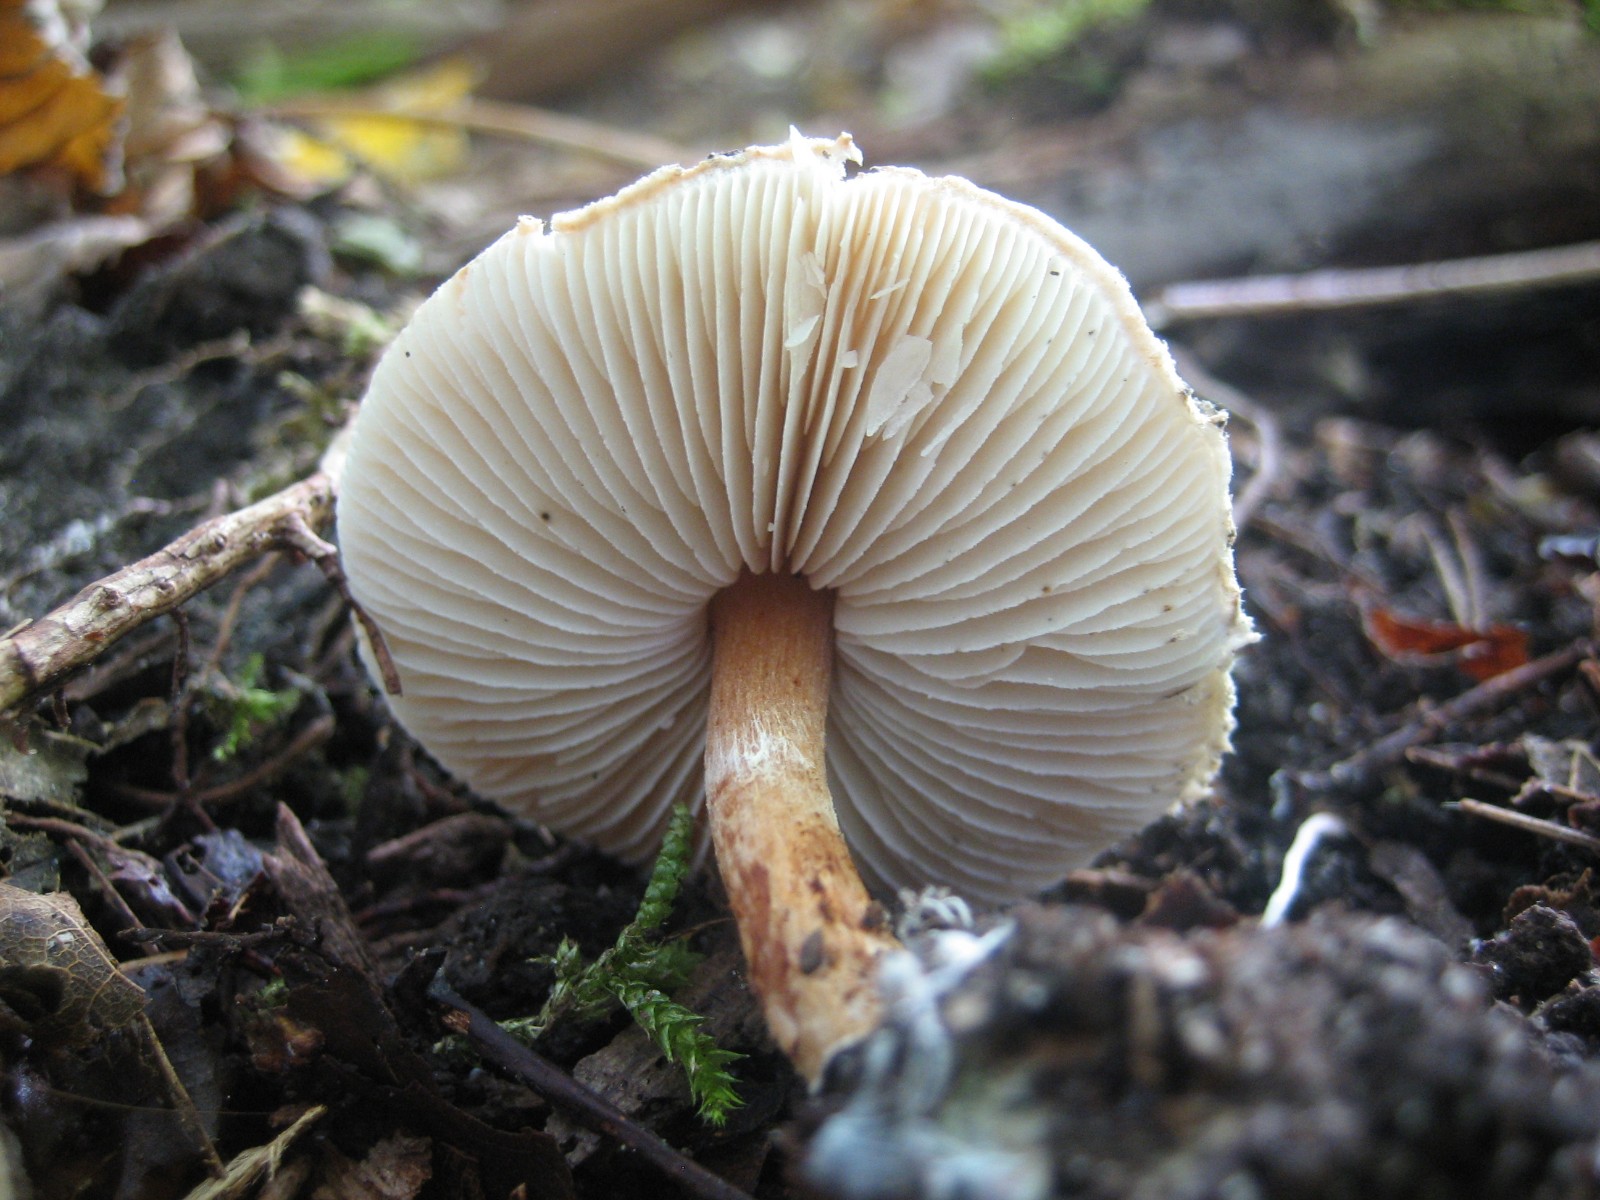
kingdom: Fungi
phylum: Basidiomycota
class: Agaricomycetes
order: Agaricales
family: Agaricaceae
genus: Lepiota
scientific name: Lepiota grangei
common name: grønskællet parasolhat
